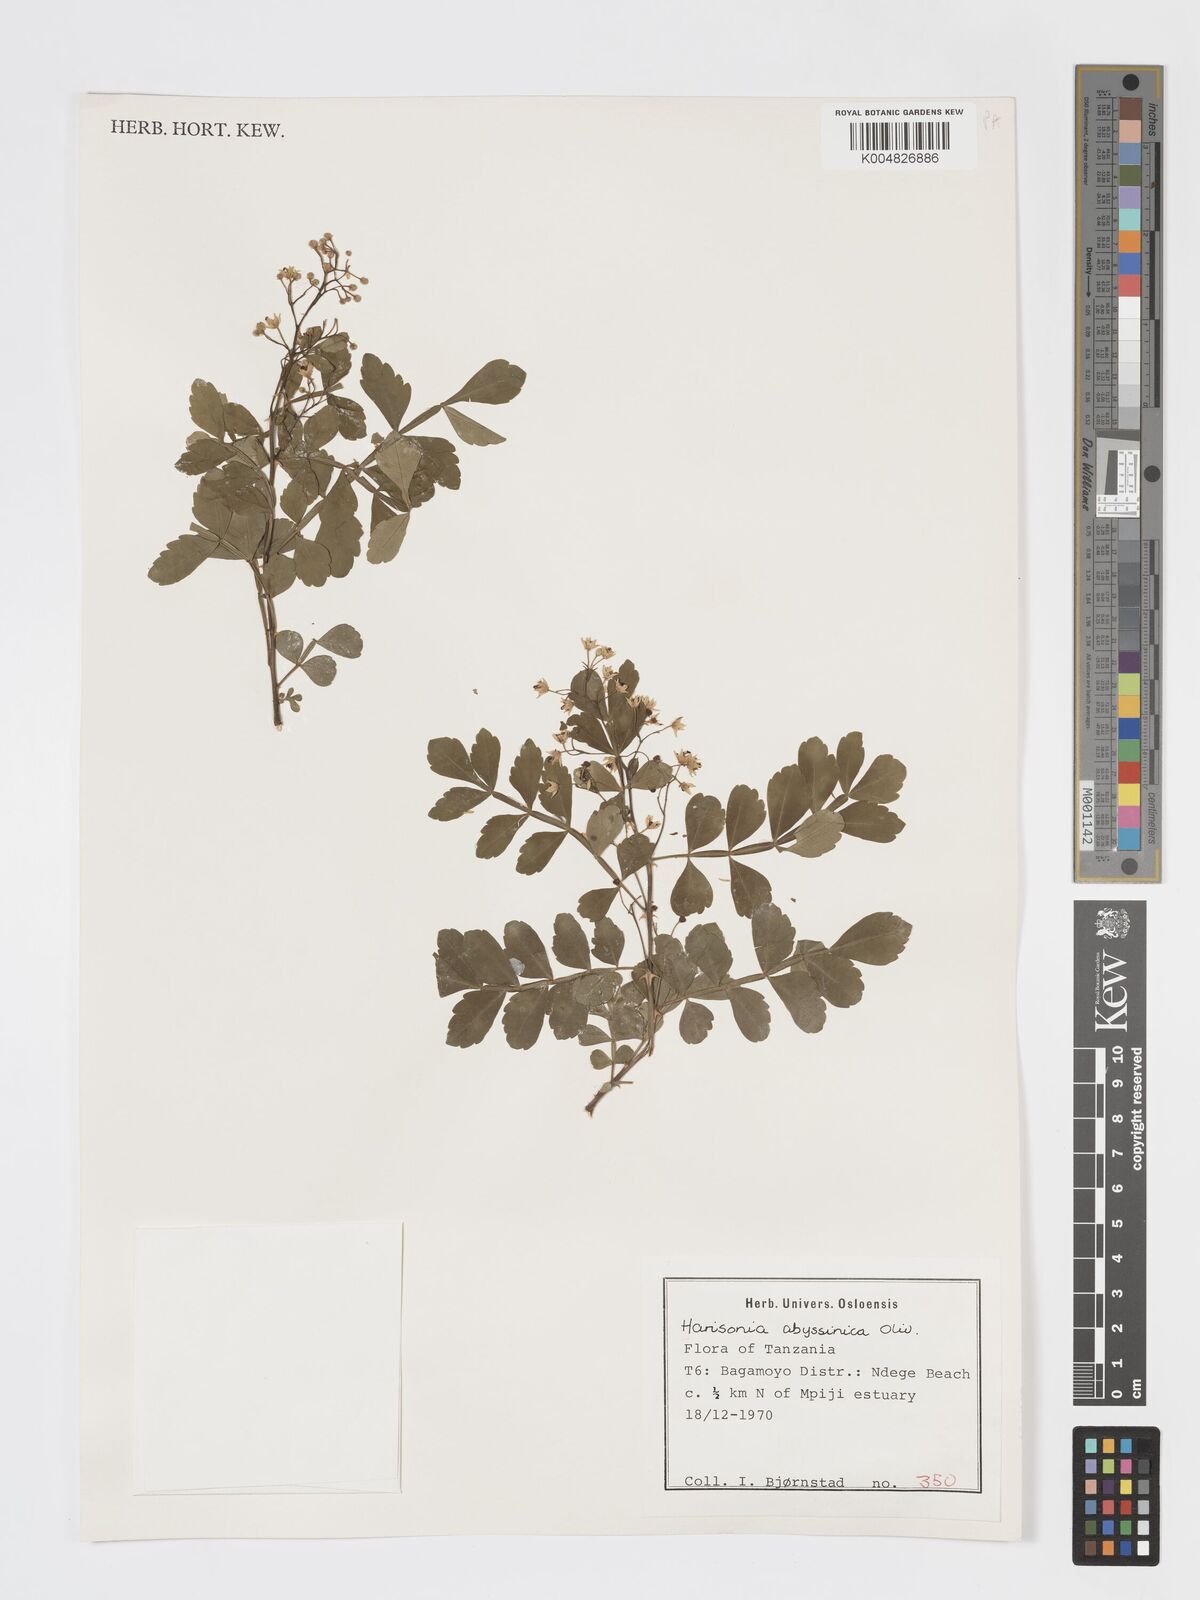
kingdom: Plantae
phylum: Tracheophyta
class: Magnoliopsida
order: Sapindales
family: Rutaceae
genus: Harrisonia
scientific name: Harrisonia abyssinica
